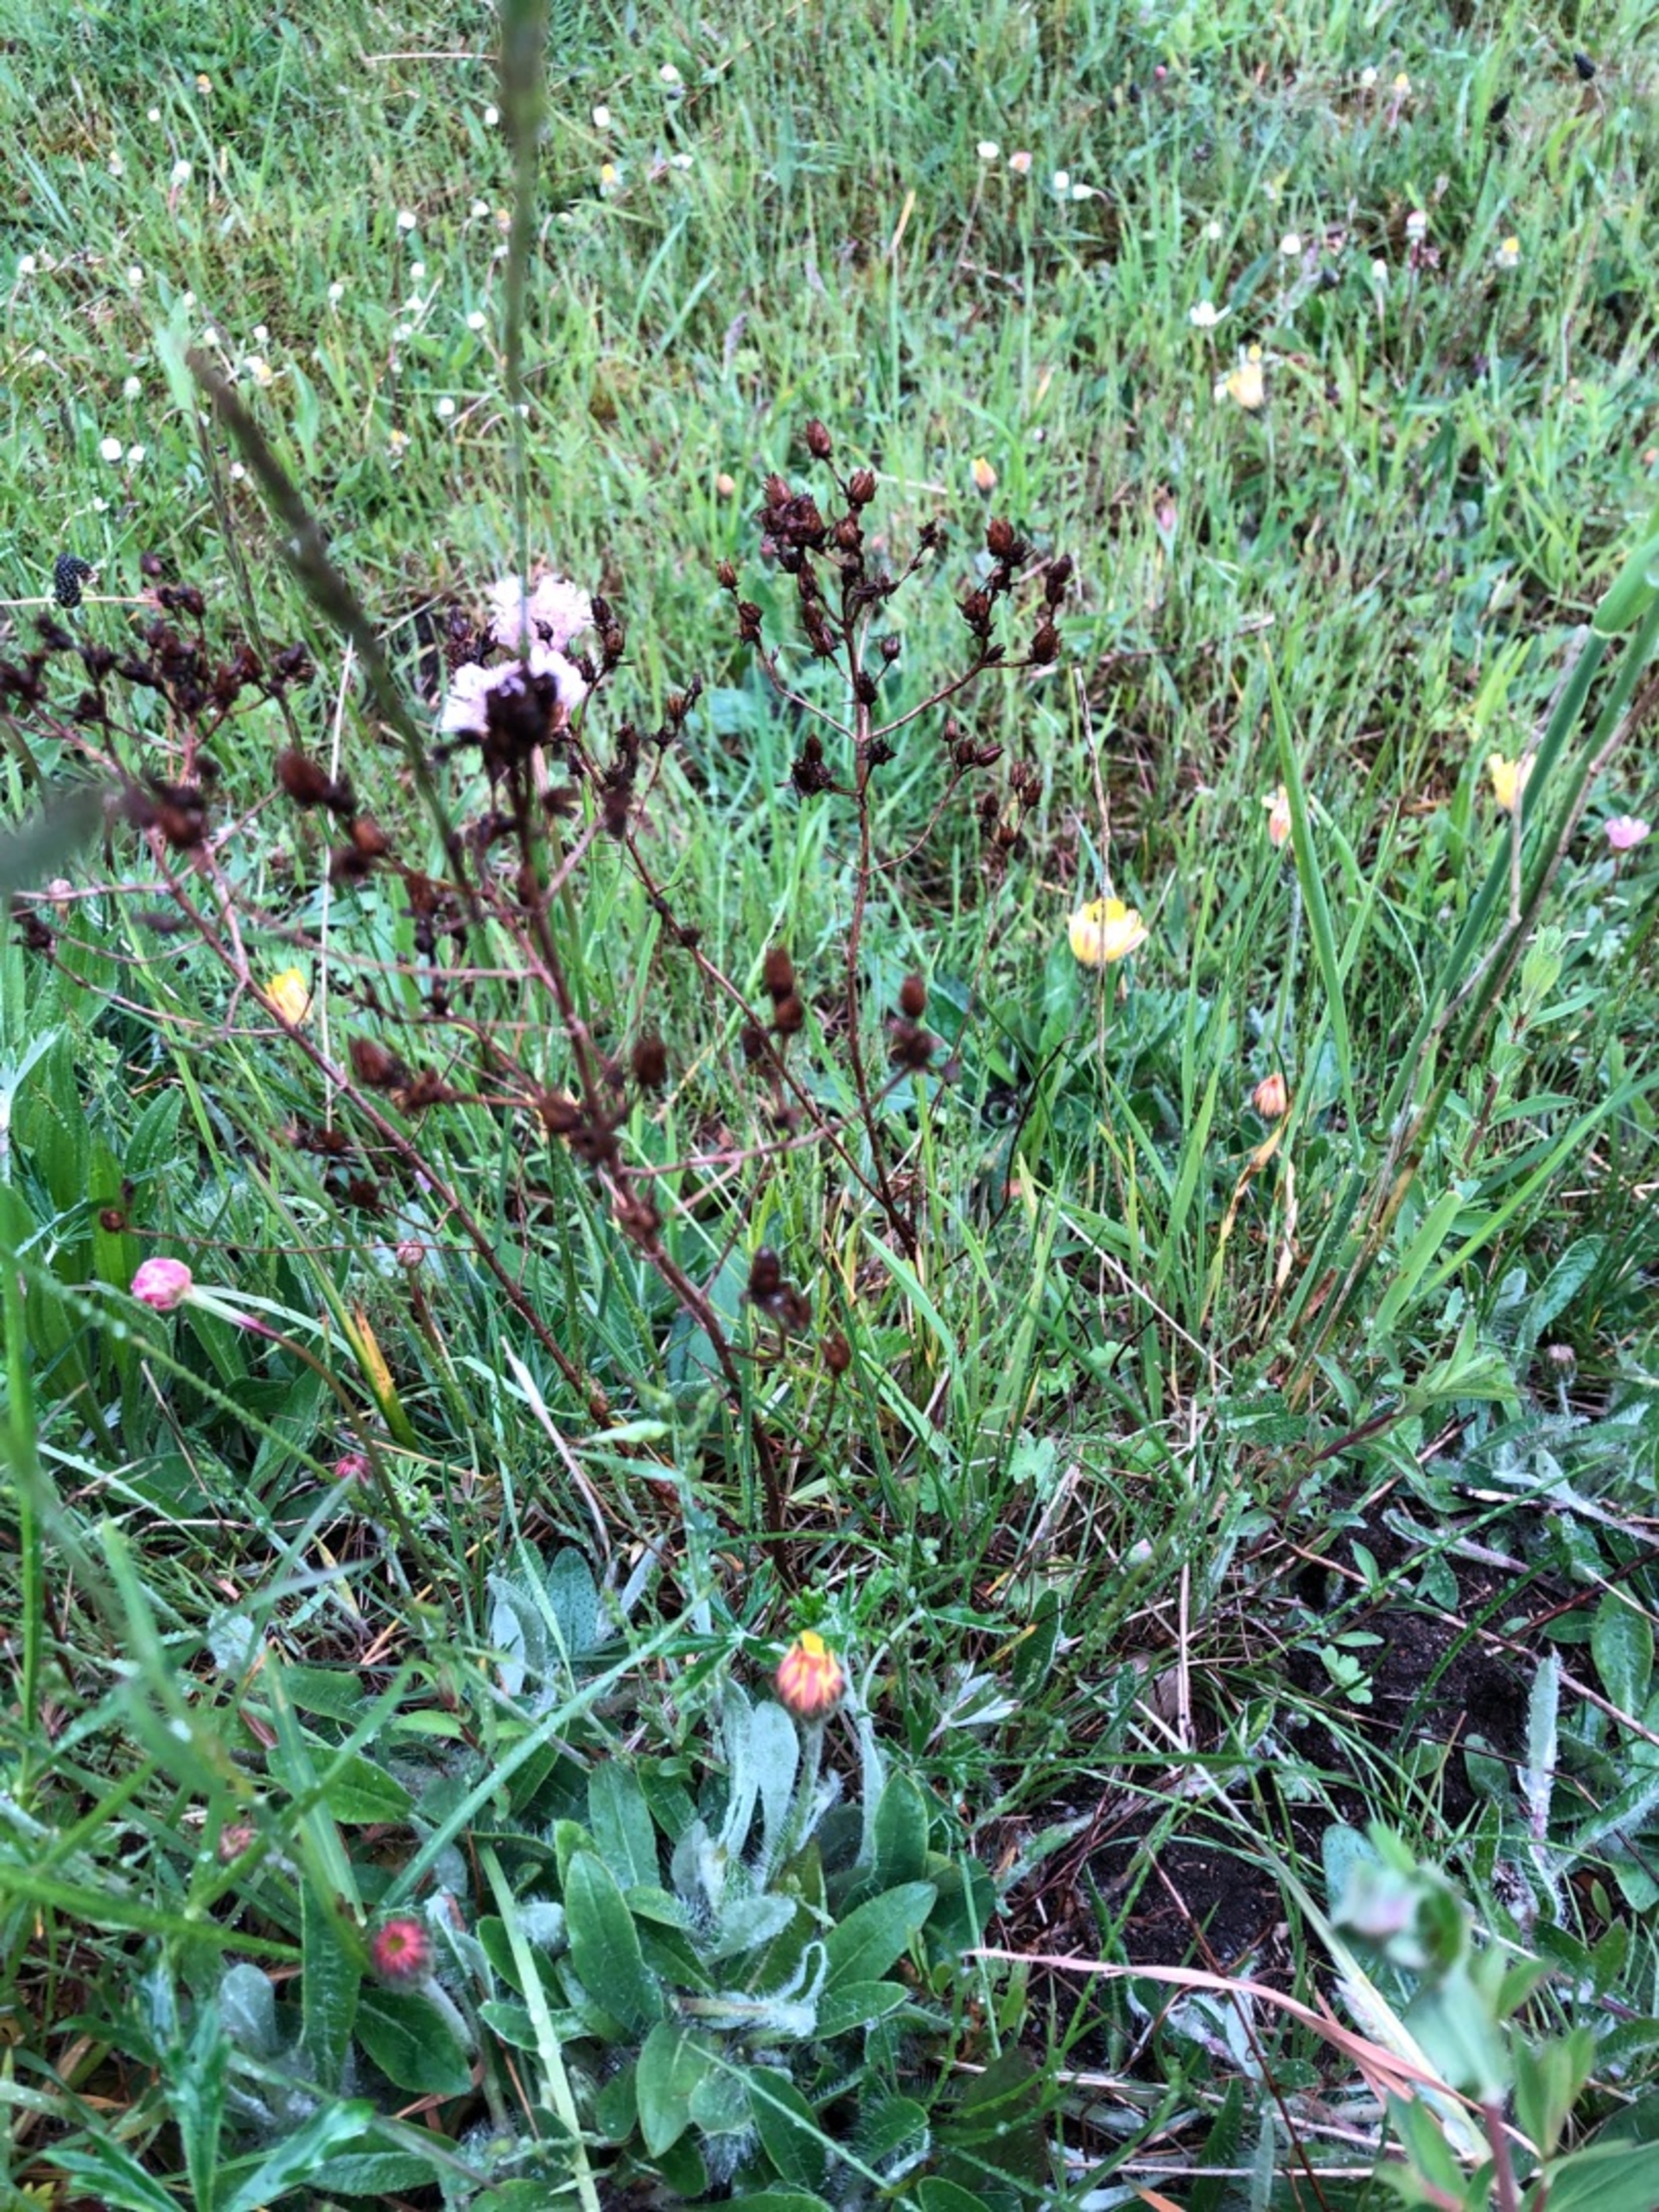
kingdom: Plantae
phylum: Tracheophyta
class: Magnoliopsida
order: Malpighiales
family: Hypericaceae
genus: Hypericum
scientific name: Hypericum perforatum
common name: Prikbladet perikon
